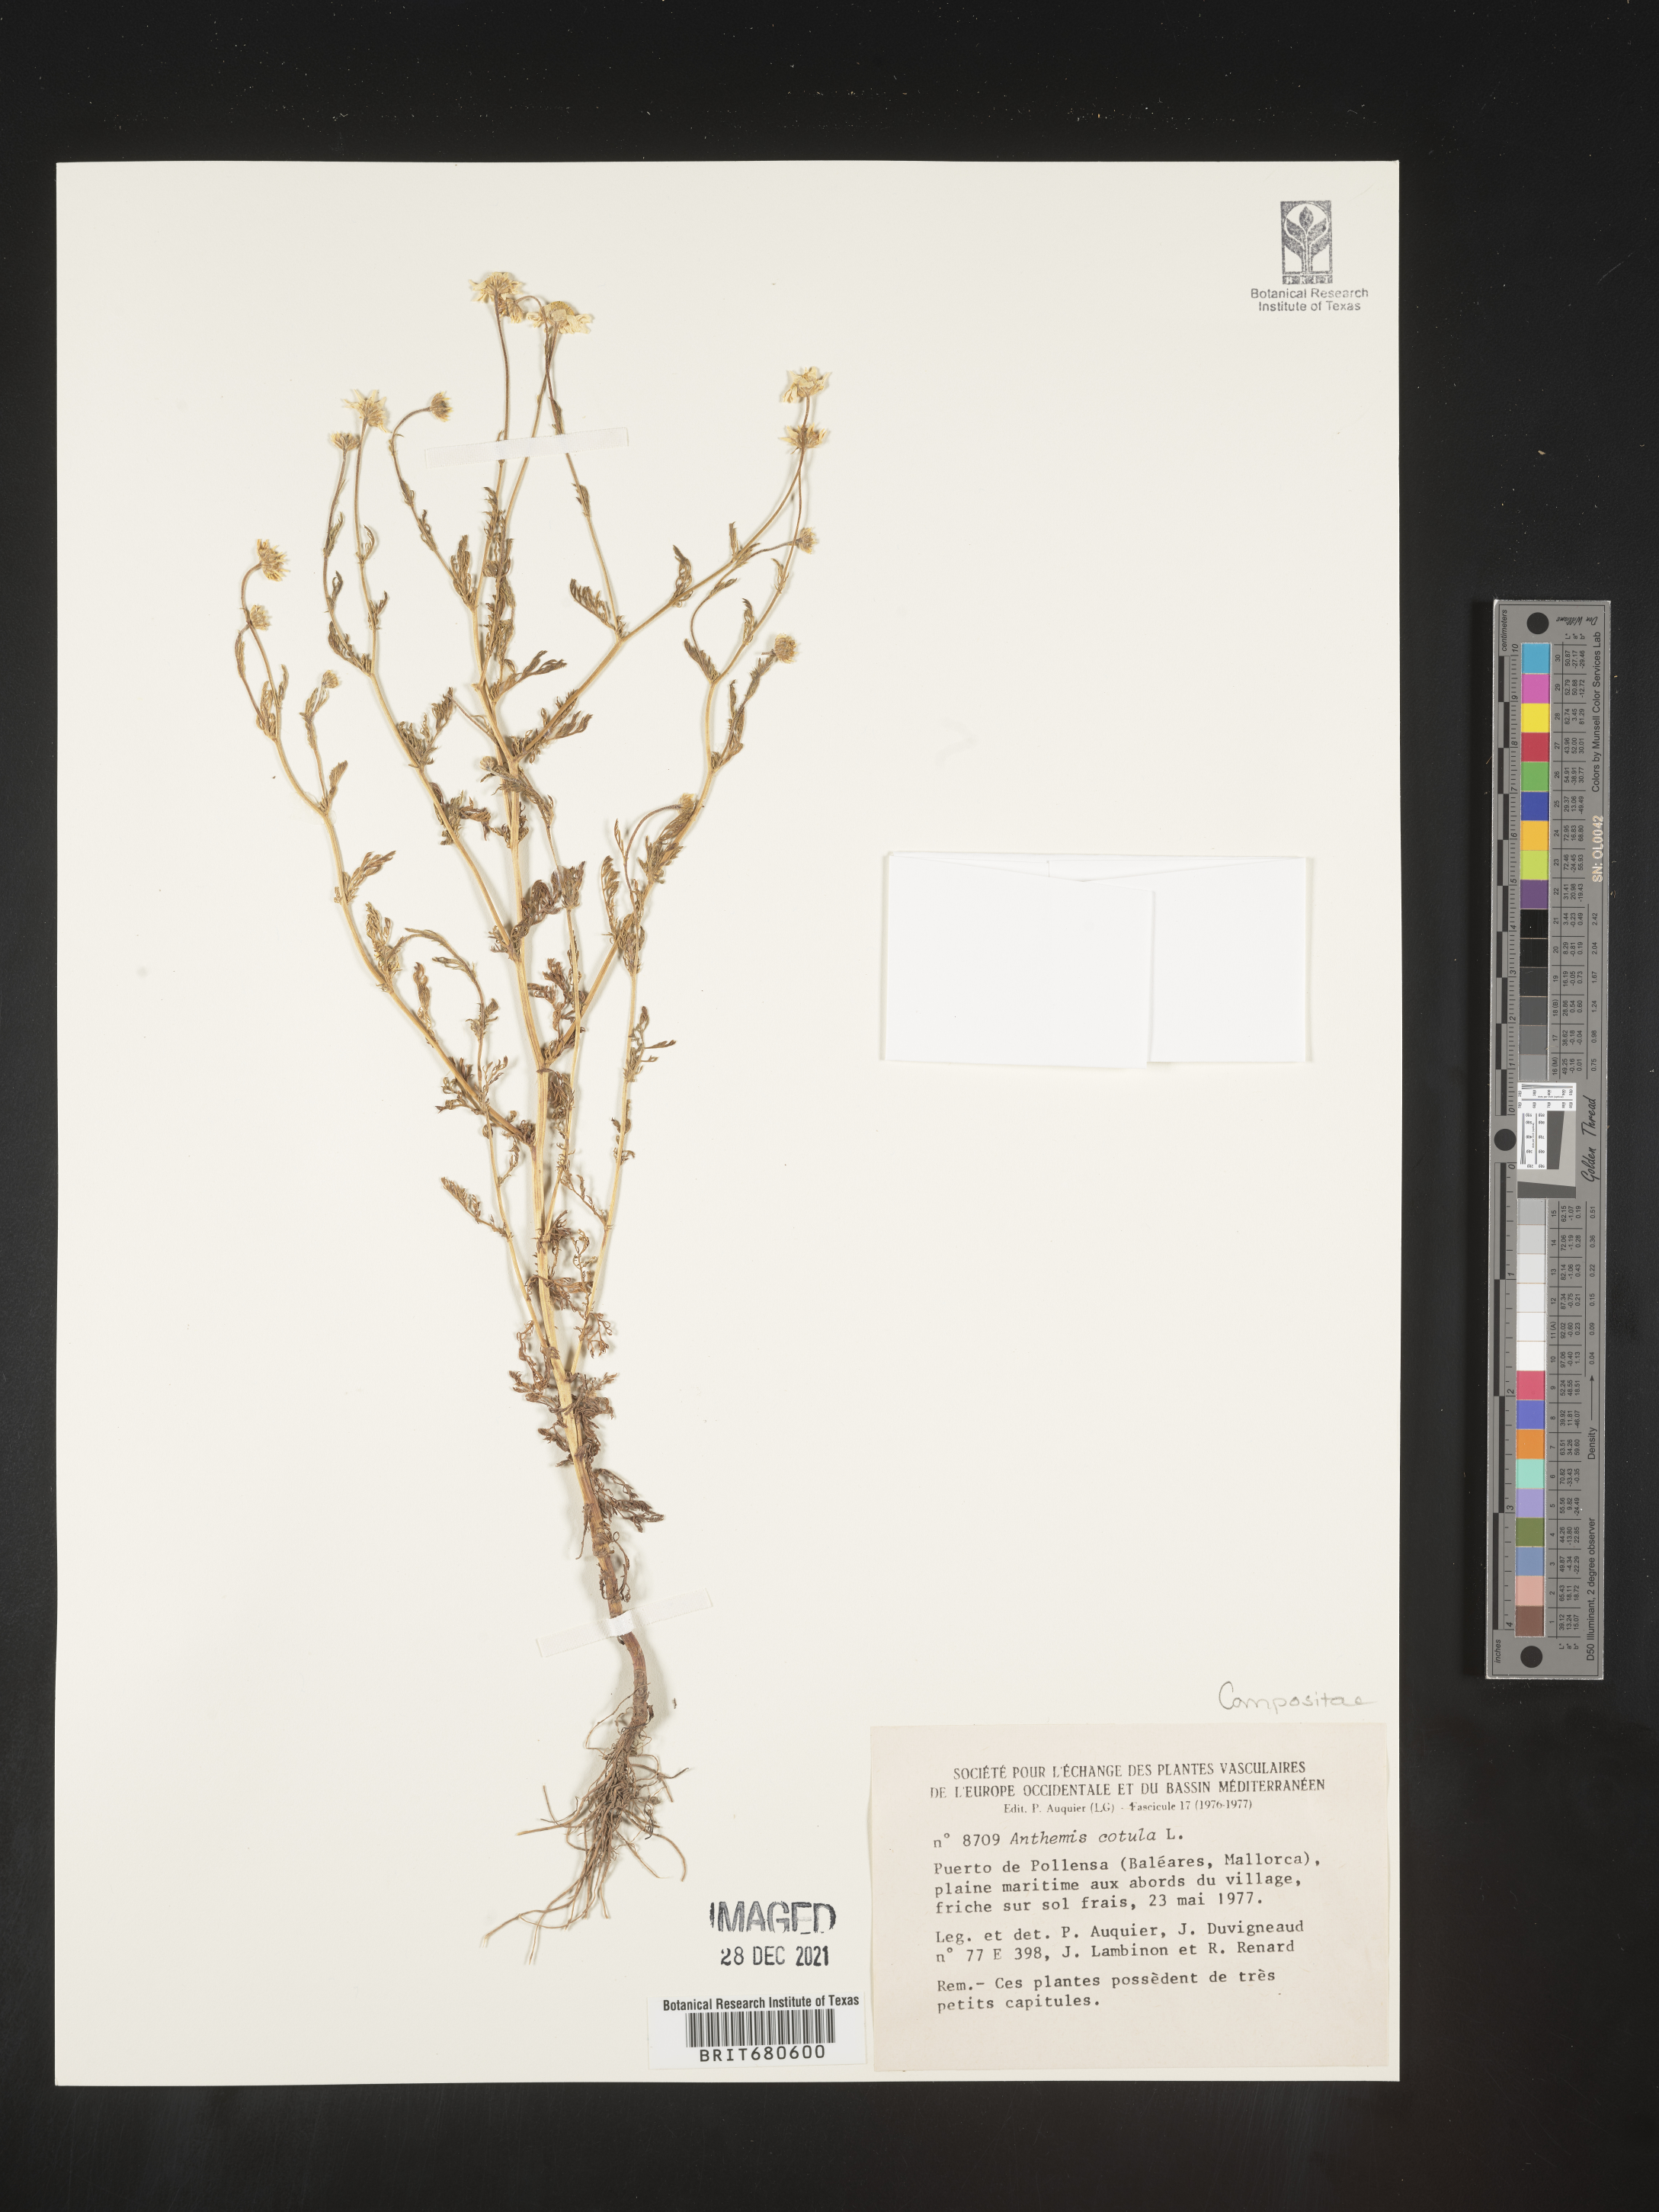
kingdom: Plantae
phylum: Tracheophyta
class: Magnoliopsida
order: Asterales
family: Asteraceae
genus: Anthemis
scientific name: Anthemis
